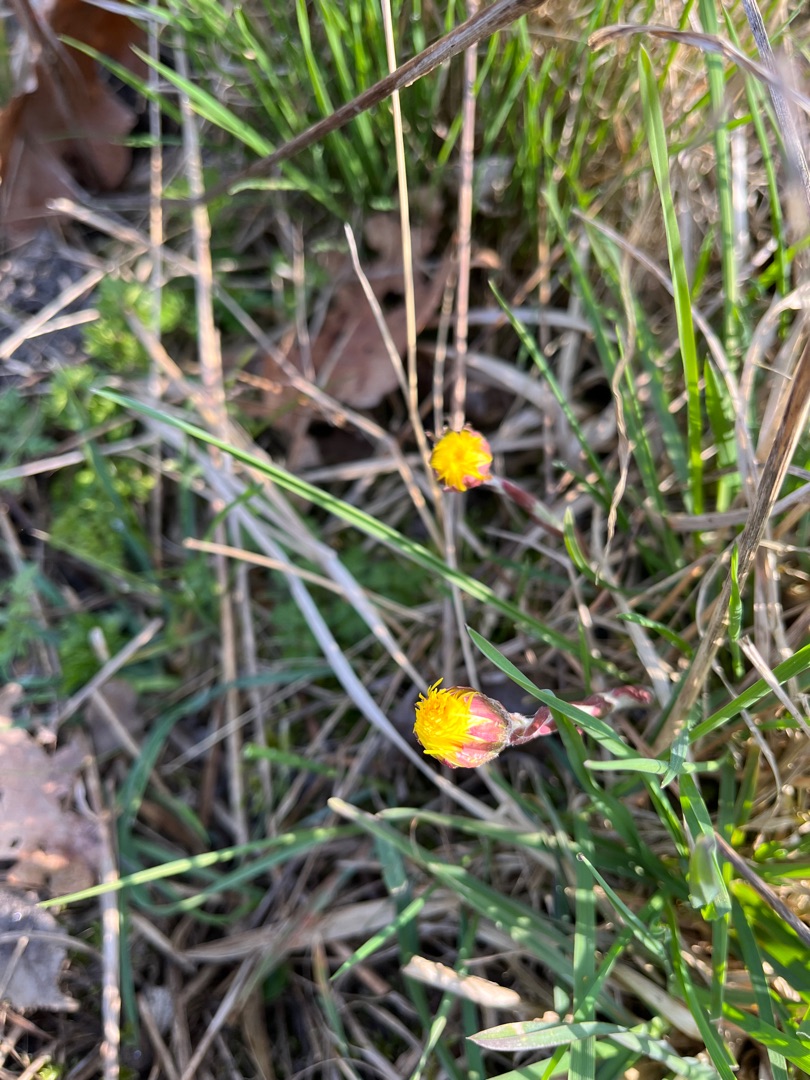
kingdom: Plantae
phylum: Tracheophyta
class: Magnoliopsida
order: Asterales
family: Asteraceae
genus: Tussilago
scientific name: Tussilago farfara
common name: Følfod
